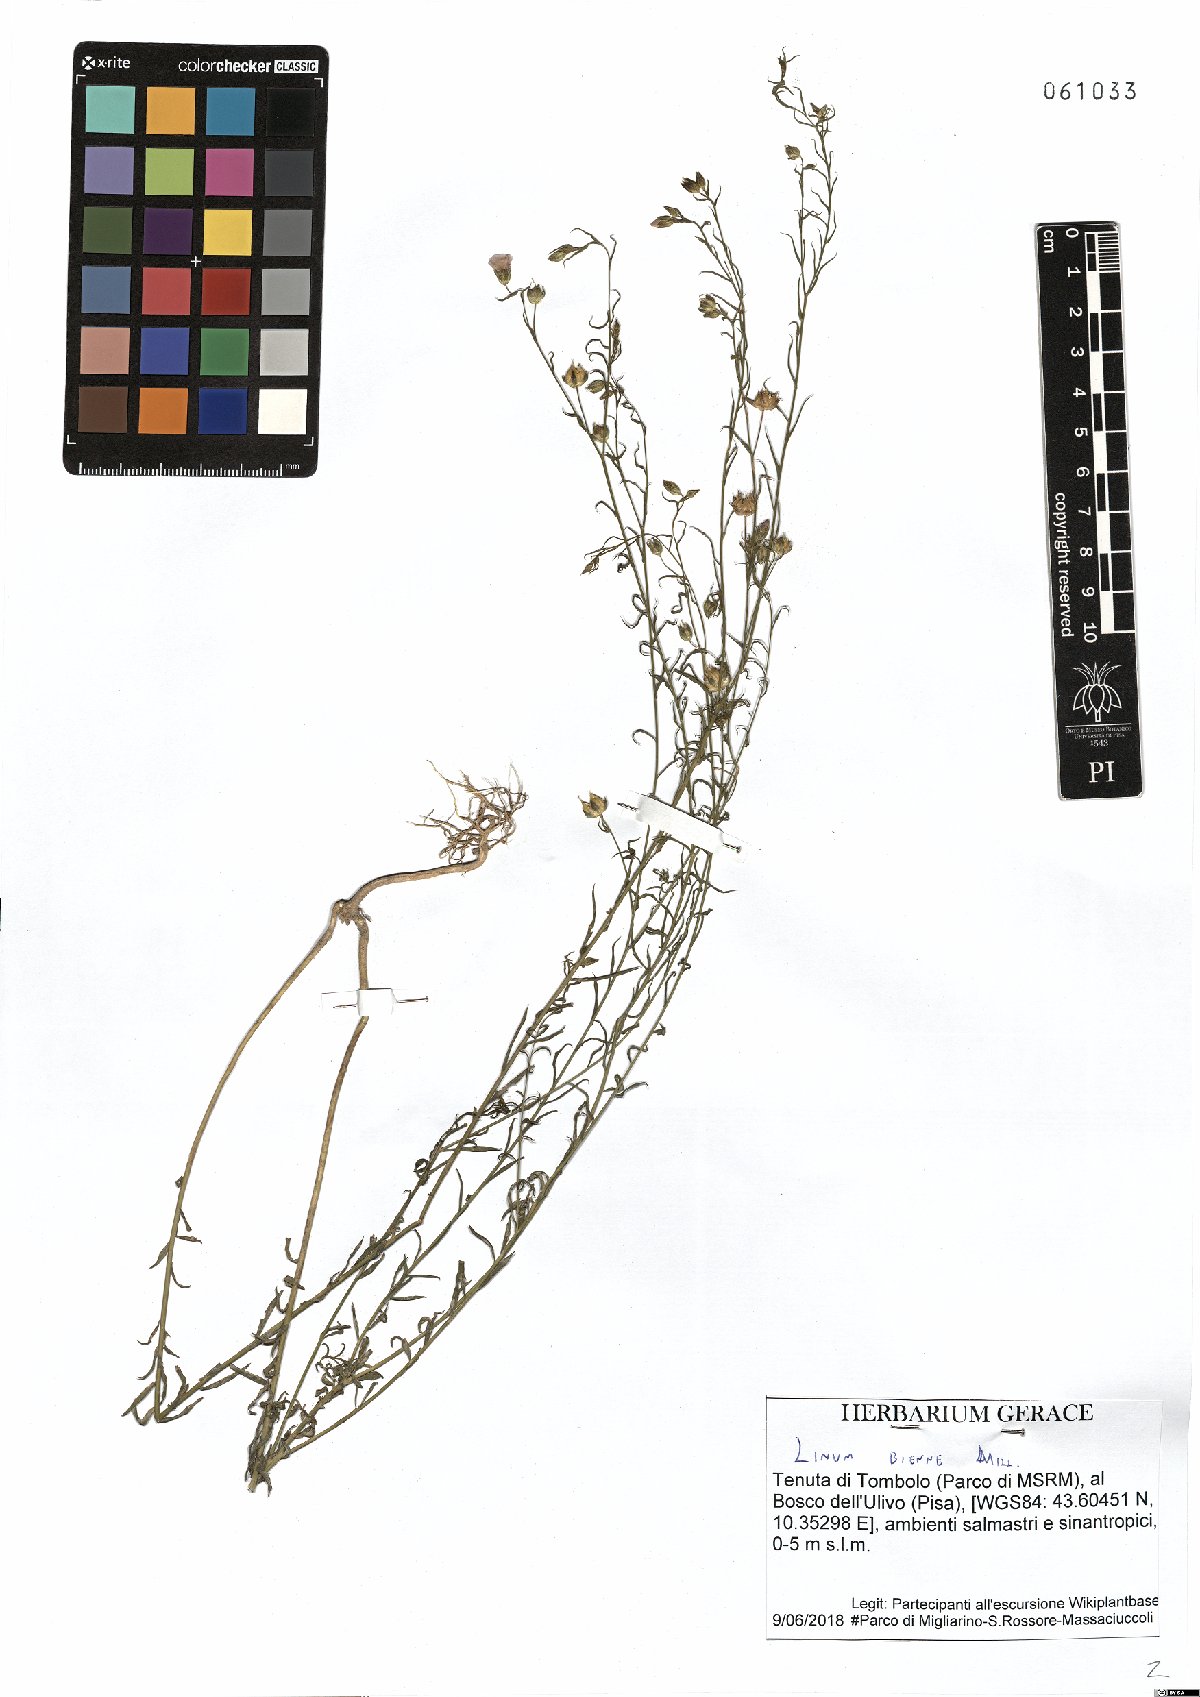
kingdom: Plantae
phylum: Tracheophyta
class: Magnoliopsida
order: Malpighiales
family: Linaceae
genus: Linum
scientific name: Linum bienne
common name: Pale flax
